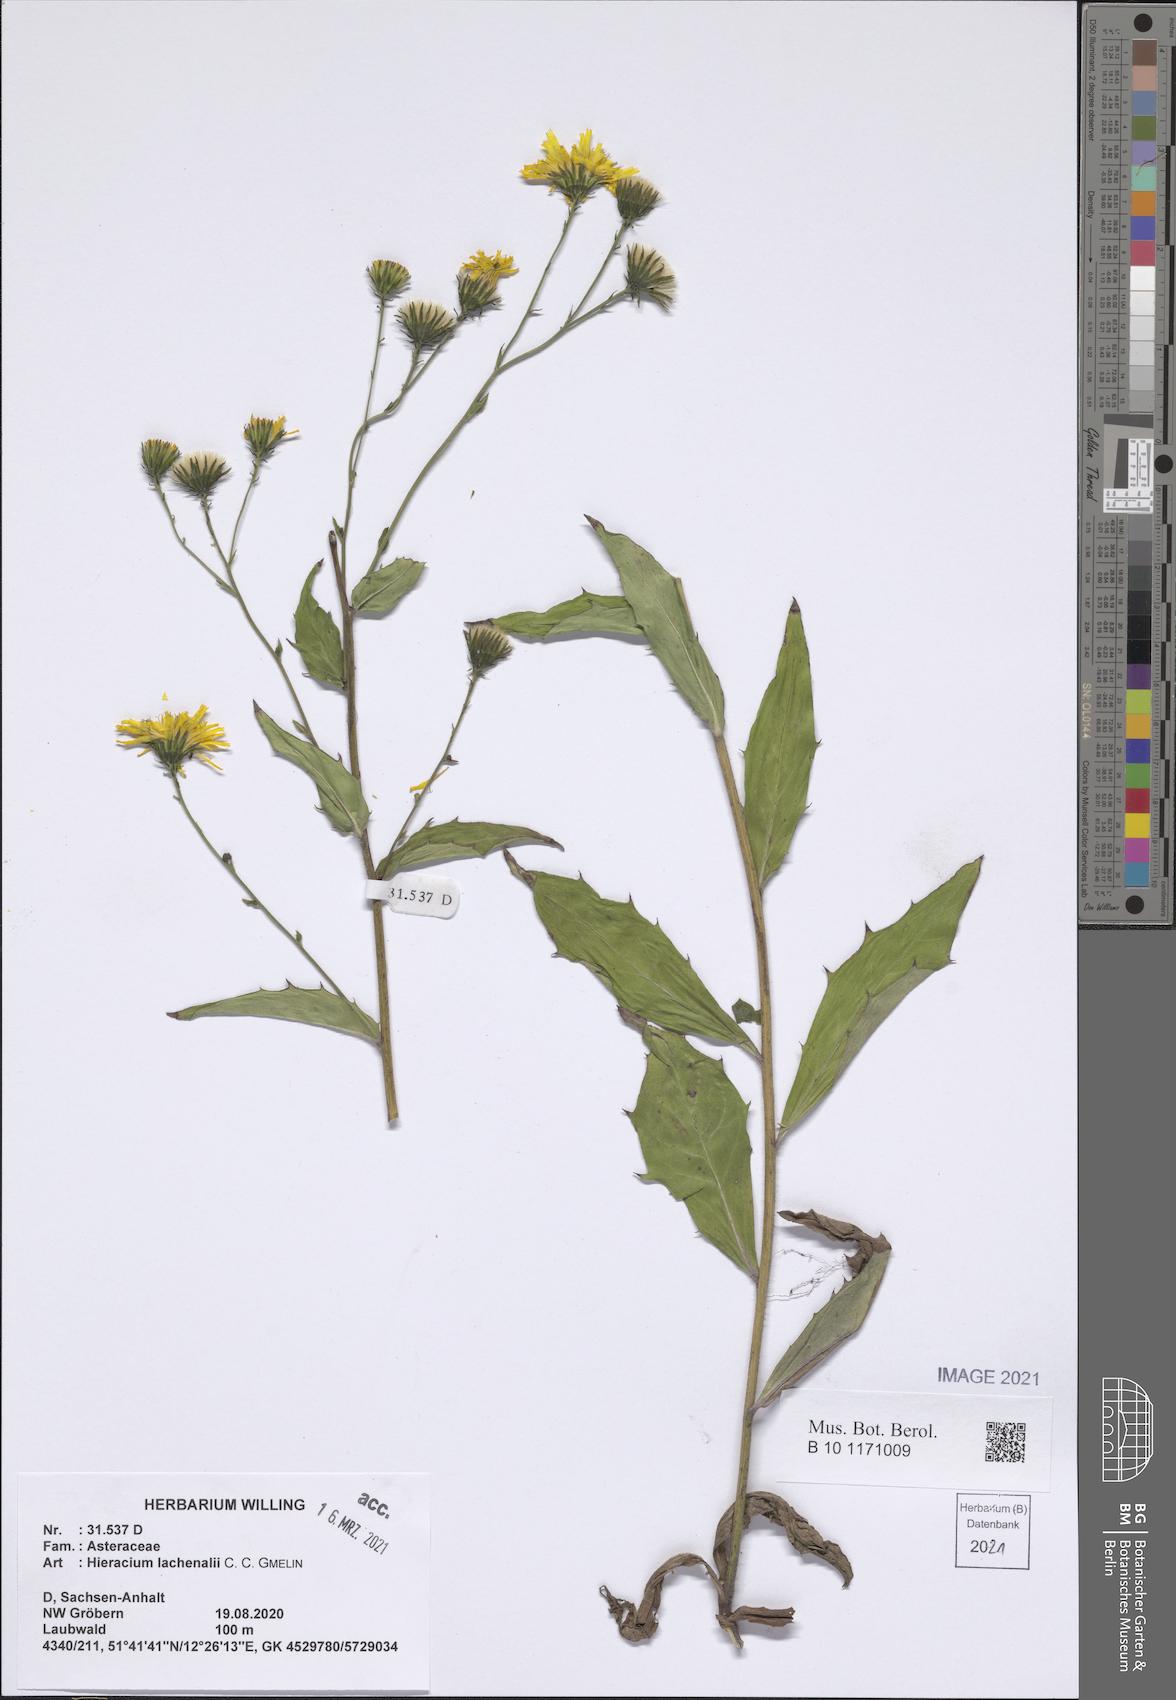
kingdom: Plantae
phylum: Tracheophyta
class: Magnoliopsida
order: Asterales
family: Asteraceae
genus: Hieracium
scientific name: Hieracium lachenalii
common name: Common hawkweed
